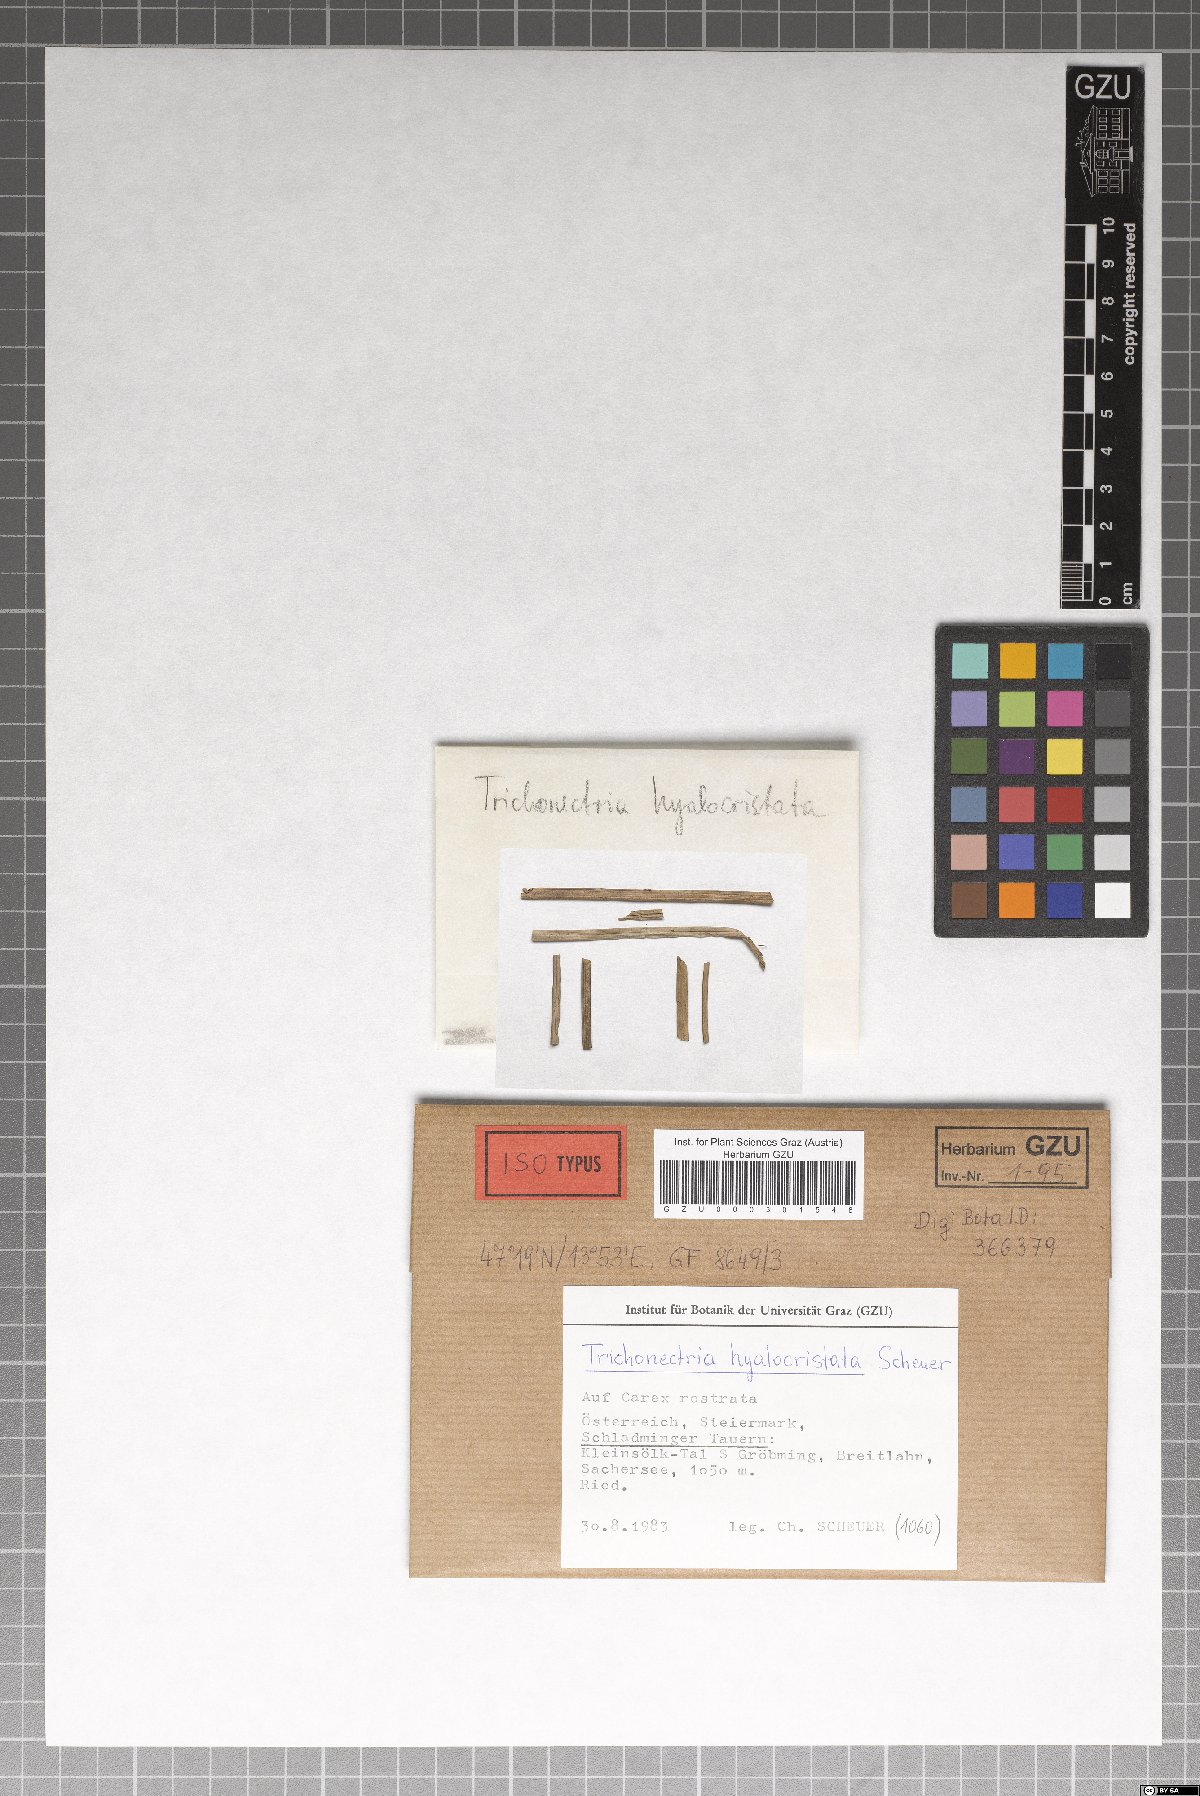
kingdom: Fungi
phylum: Ascomycota
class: Sordariomycetes
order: Hypocreales
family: Bionectriaceae
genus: Trichonectria
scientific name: Trichonectria hyalocristata
